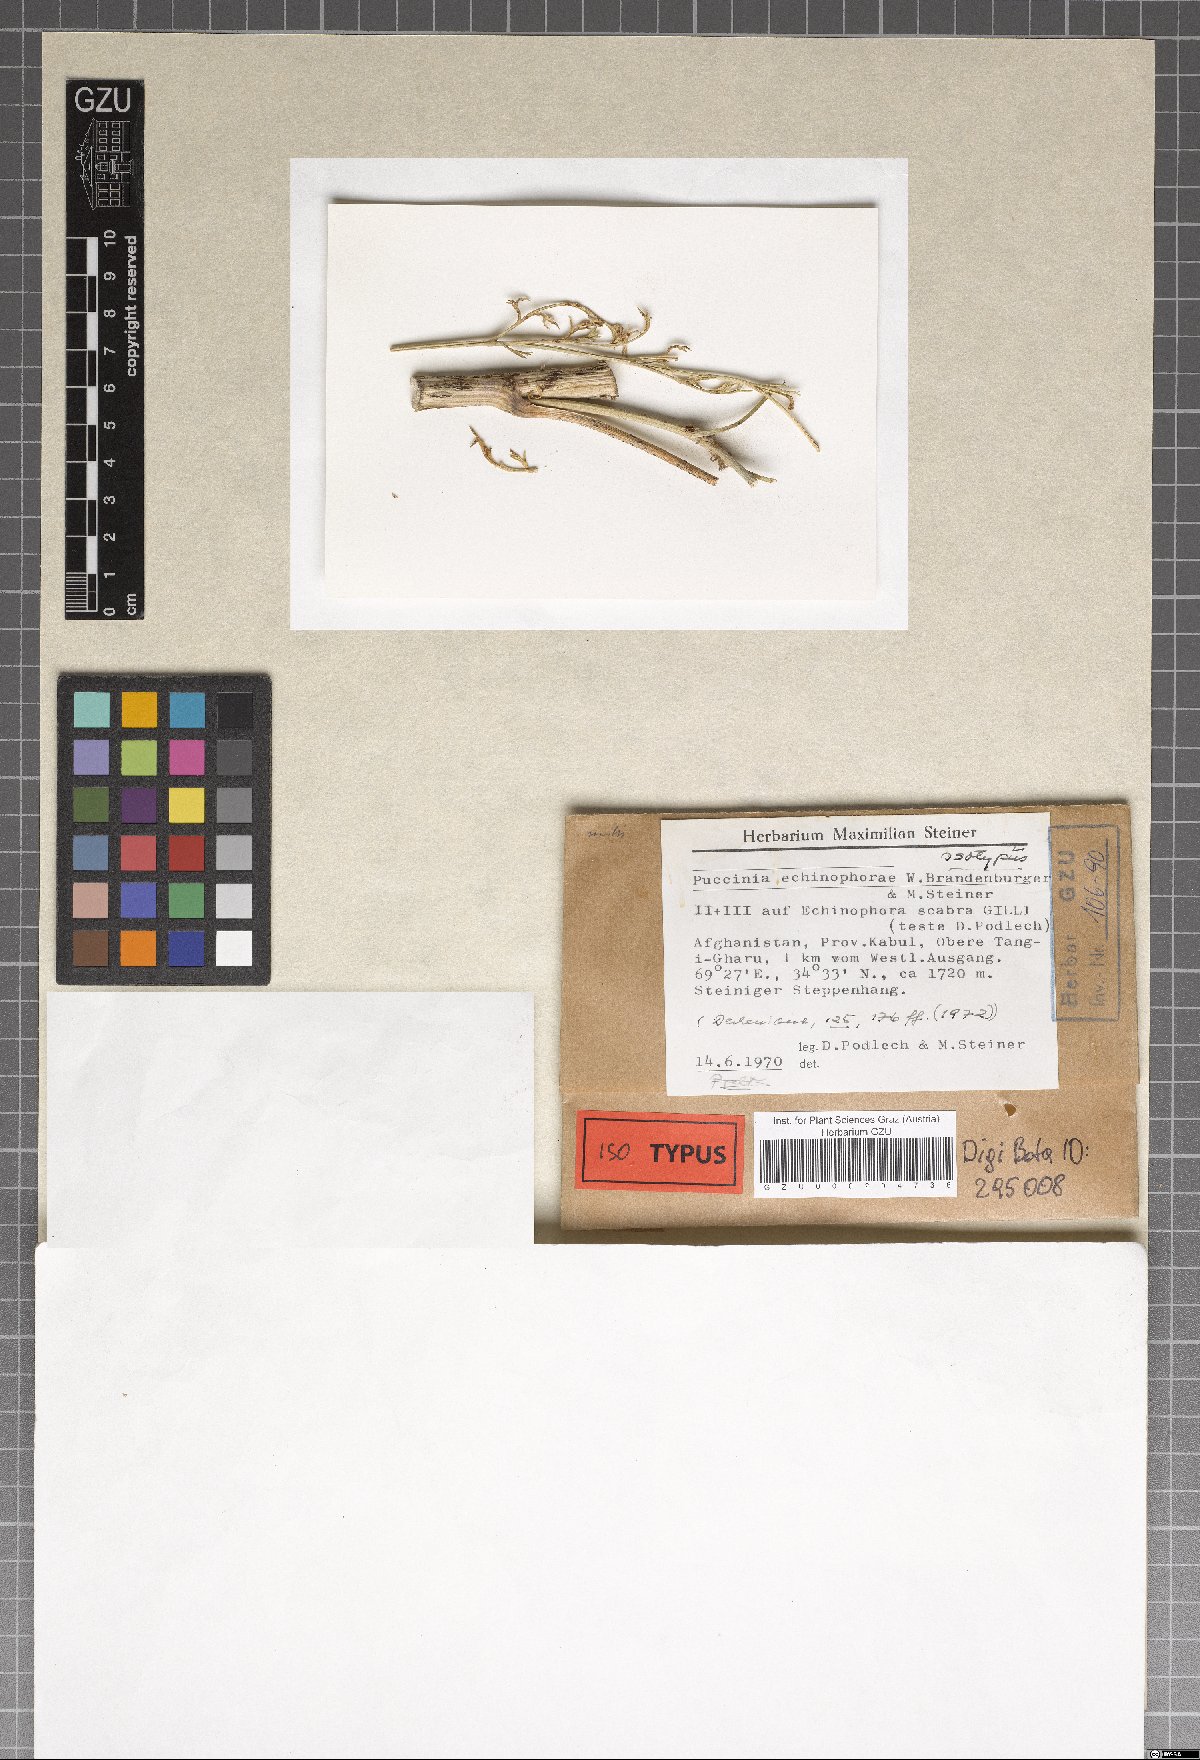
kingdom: Fungi
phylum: Basidiomycota
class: Pucciniomycetes
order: Pucciniales
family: Pucciniaceae
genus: Puccinia
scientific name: Puccinia echinophorae
